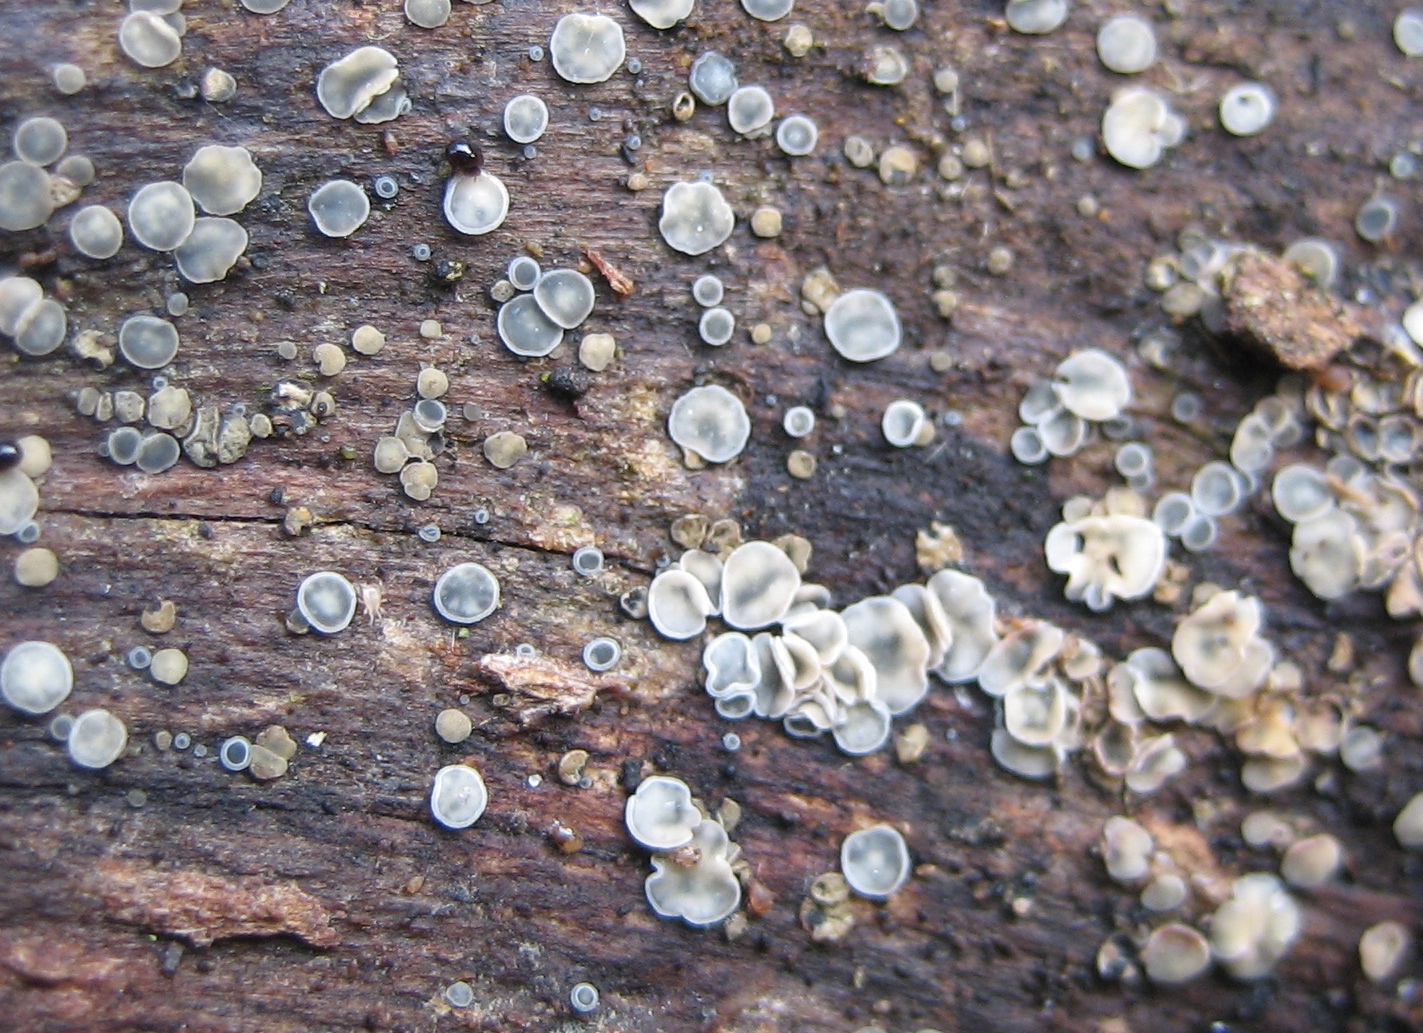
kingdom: Fungi
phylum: Ascomycota
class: Leotiomycetes
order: Helotiales
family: Mollisiaceae
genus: Mollisia
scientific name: Mollisia
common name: gråskive
